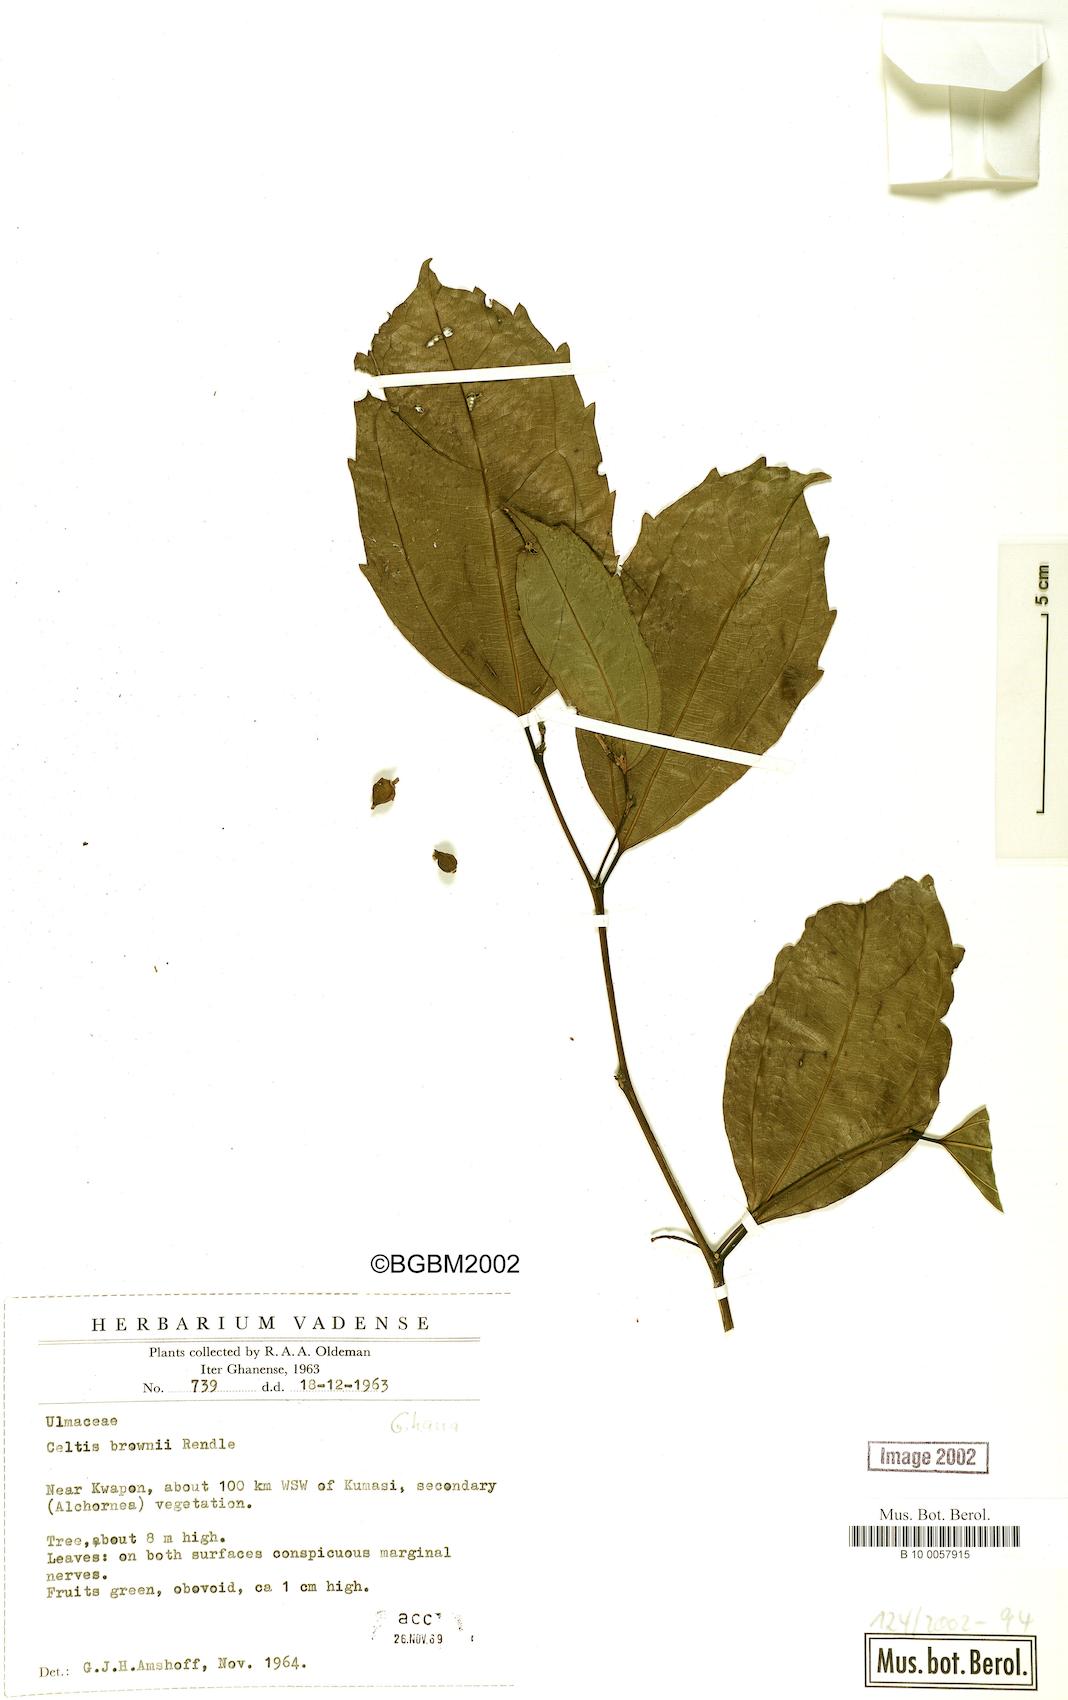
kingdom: Plantae
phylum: Tracheophyta
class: Magnoliopsida
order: Rosales
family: Cannabaceae
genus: Celtis
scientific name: Celtis philippensis
